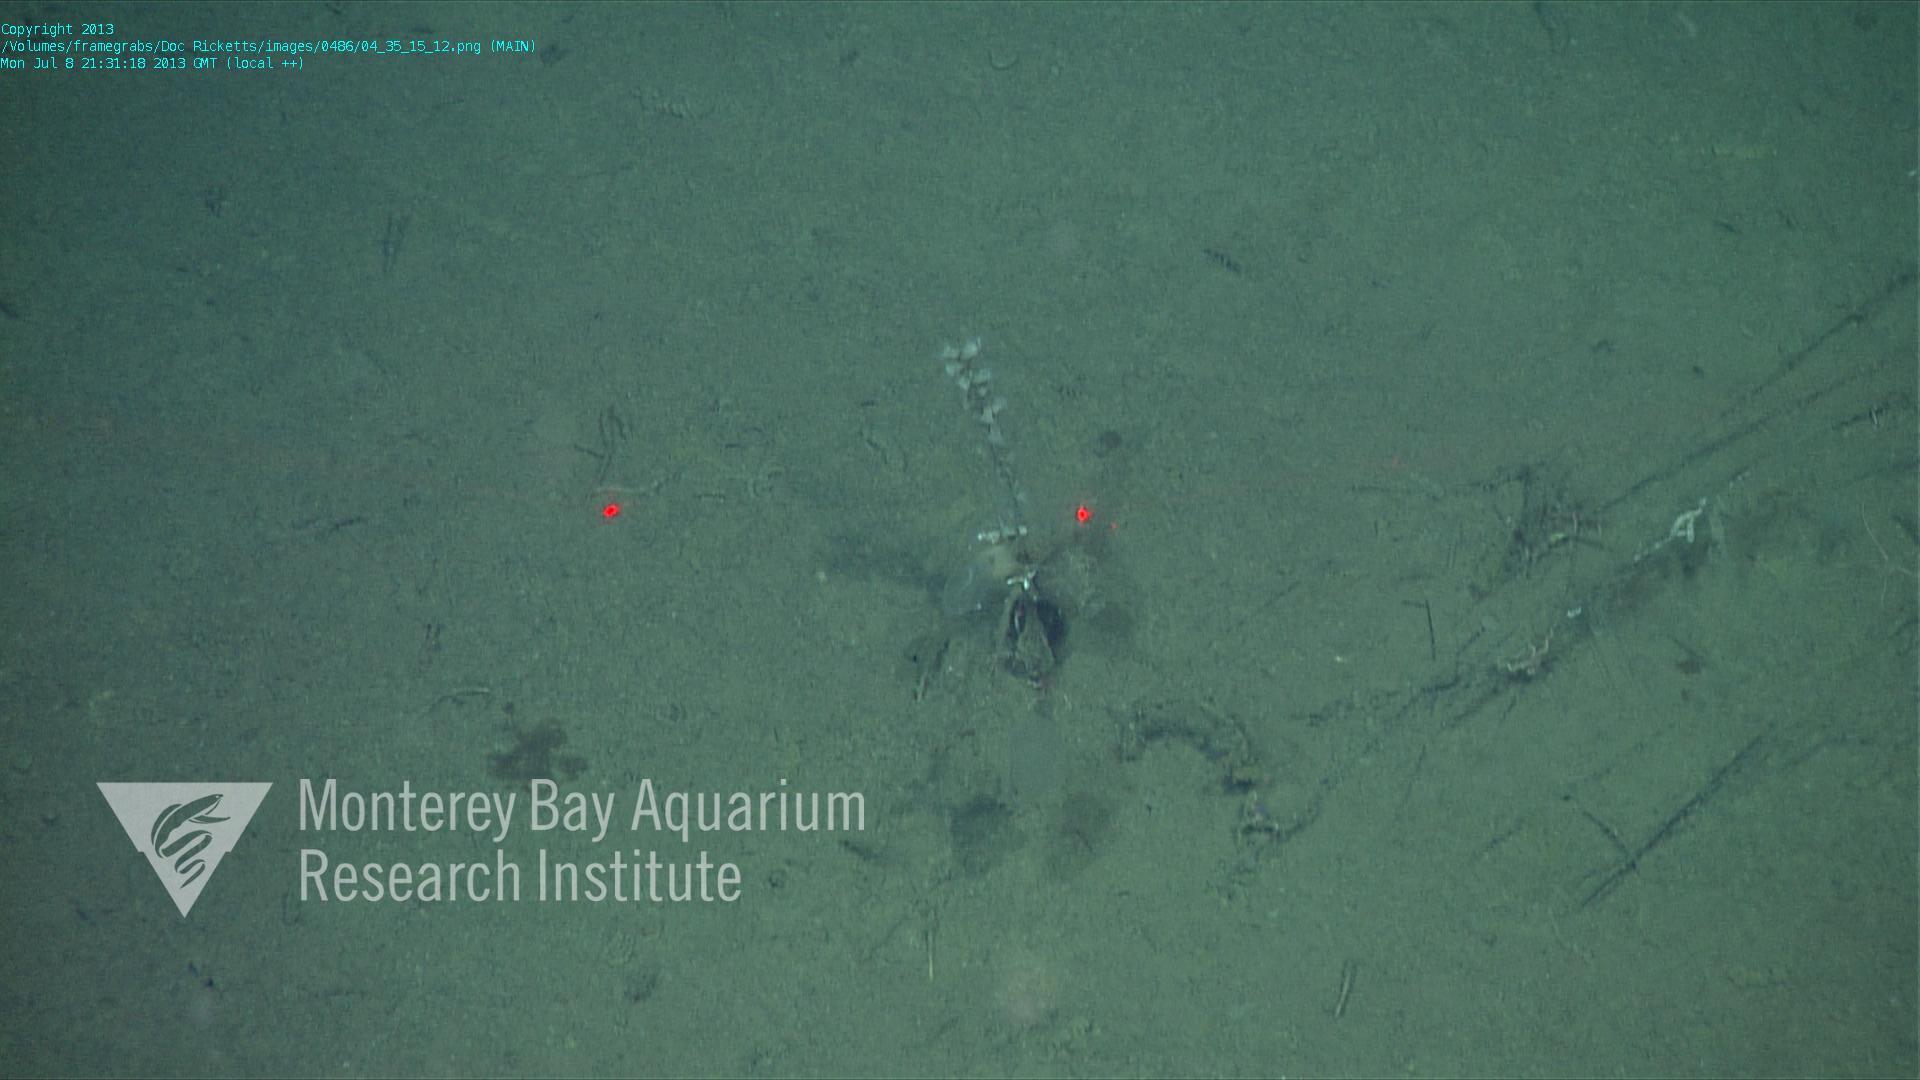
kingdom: Animalia
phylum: Porifera
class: Hexactinellida
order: Lyssacinosida
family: Rossellidae
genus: Bathydorus
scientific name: Bathydorus spinosus
